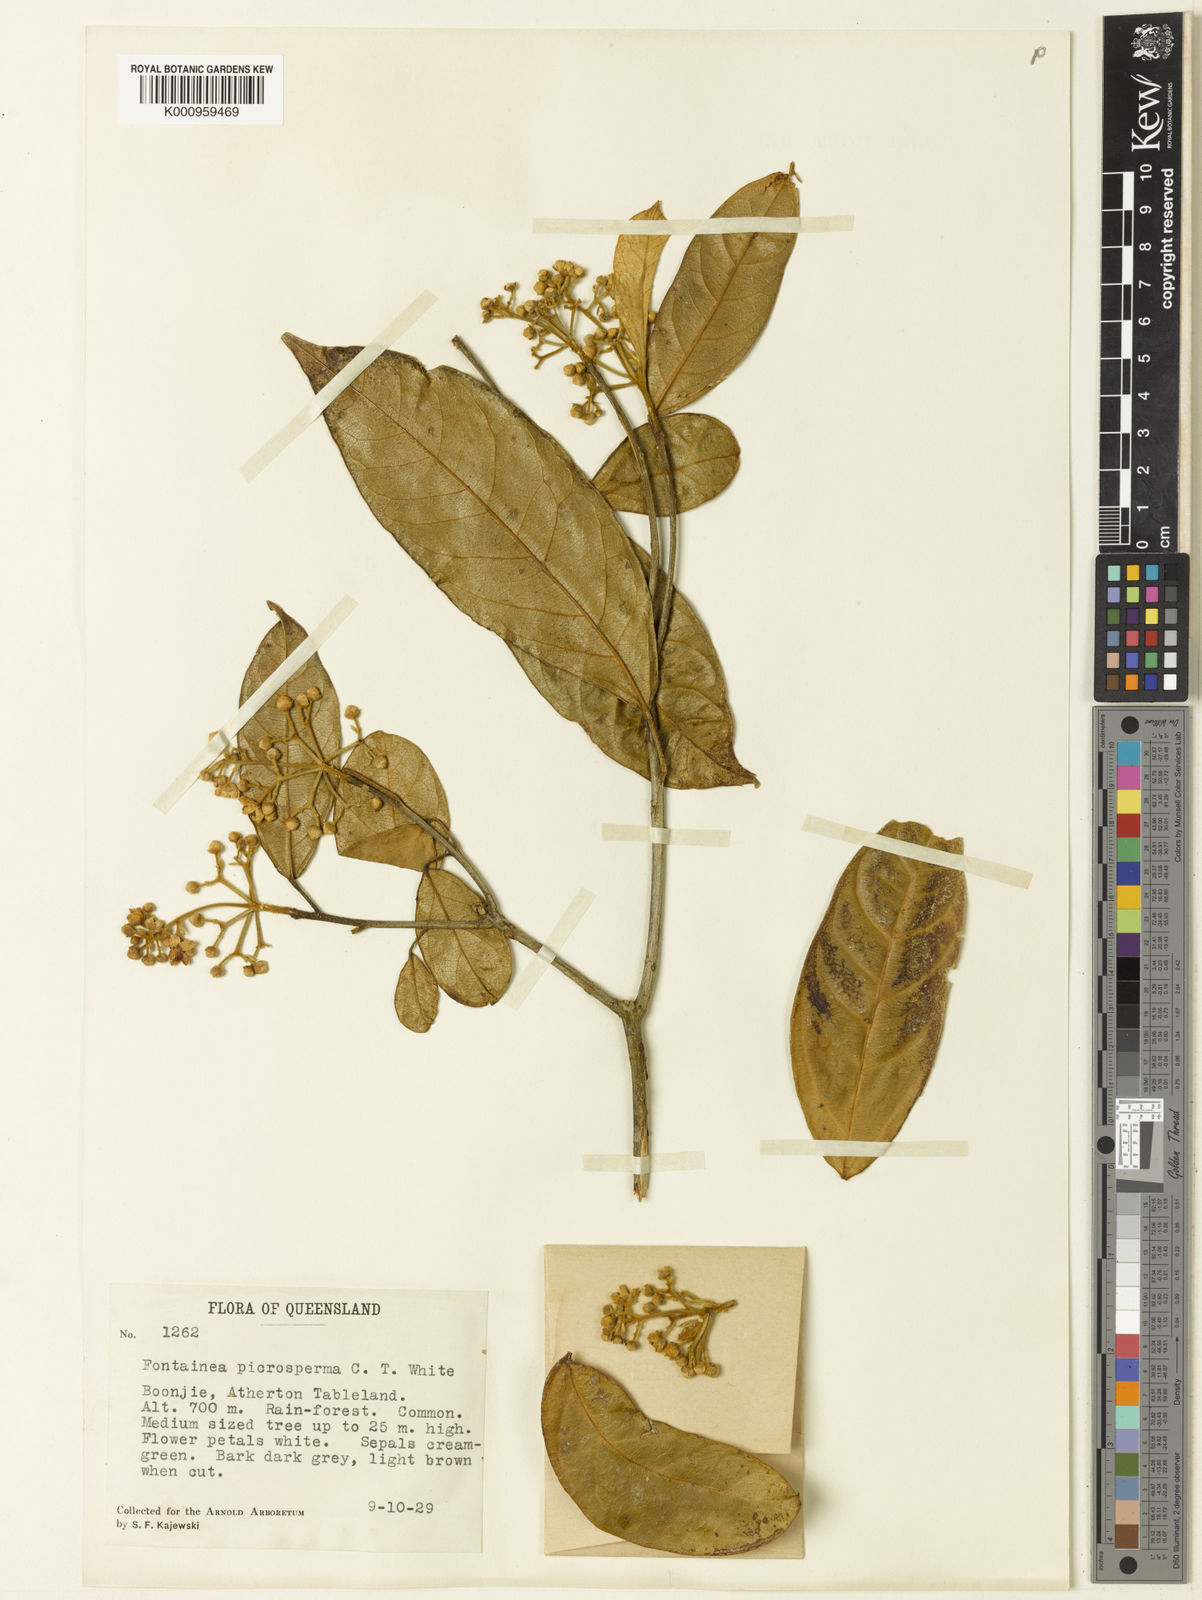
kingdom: Plantae
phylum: Tracheophyta
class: Magnoliopsida
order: Malpighiales
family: Euphorbiaceae
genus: Fontainea
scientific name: Fontainea picrosperma
